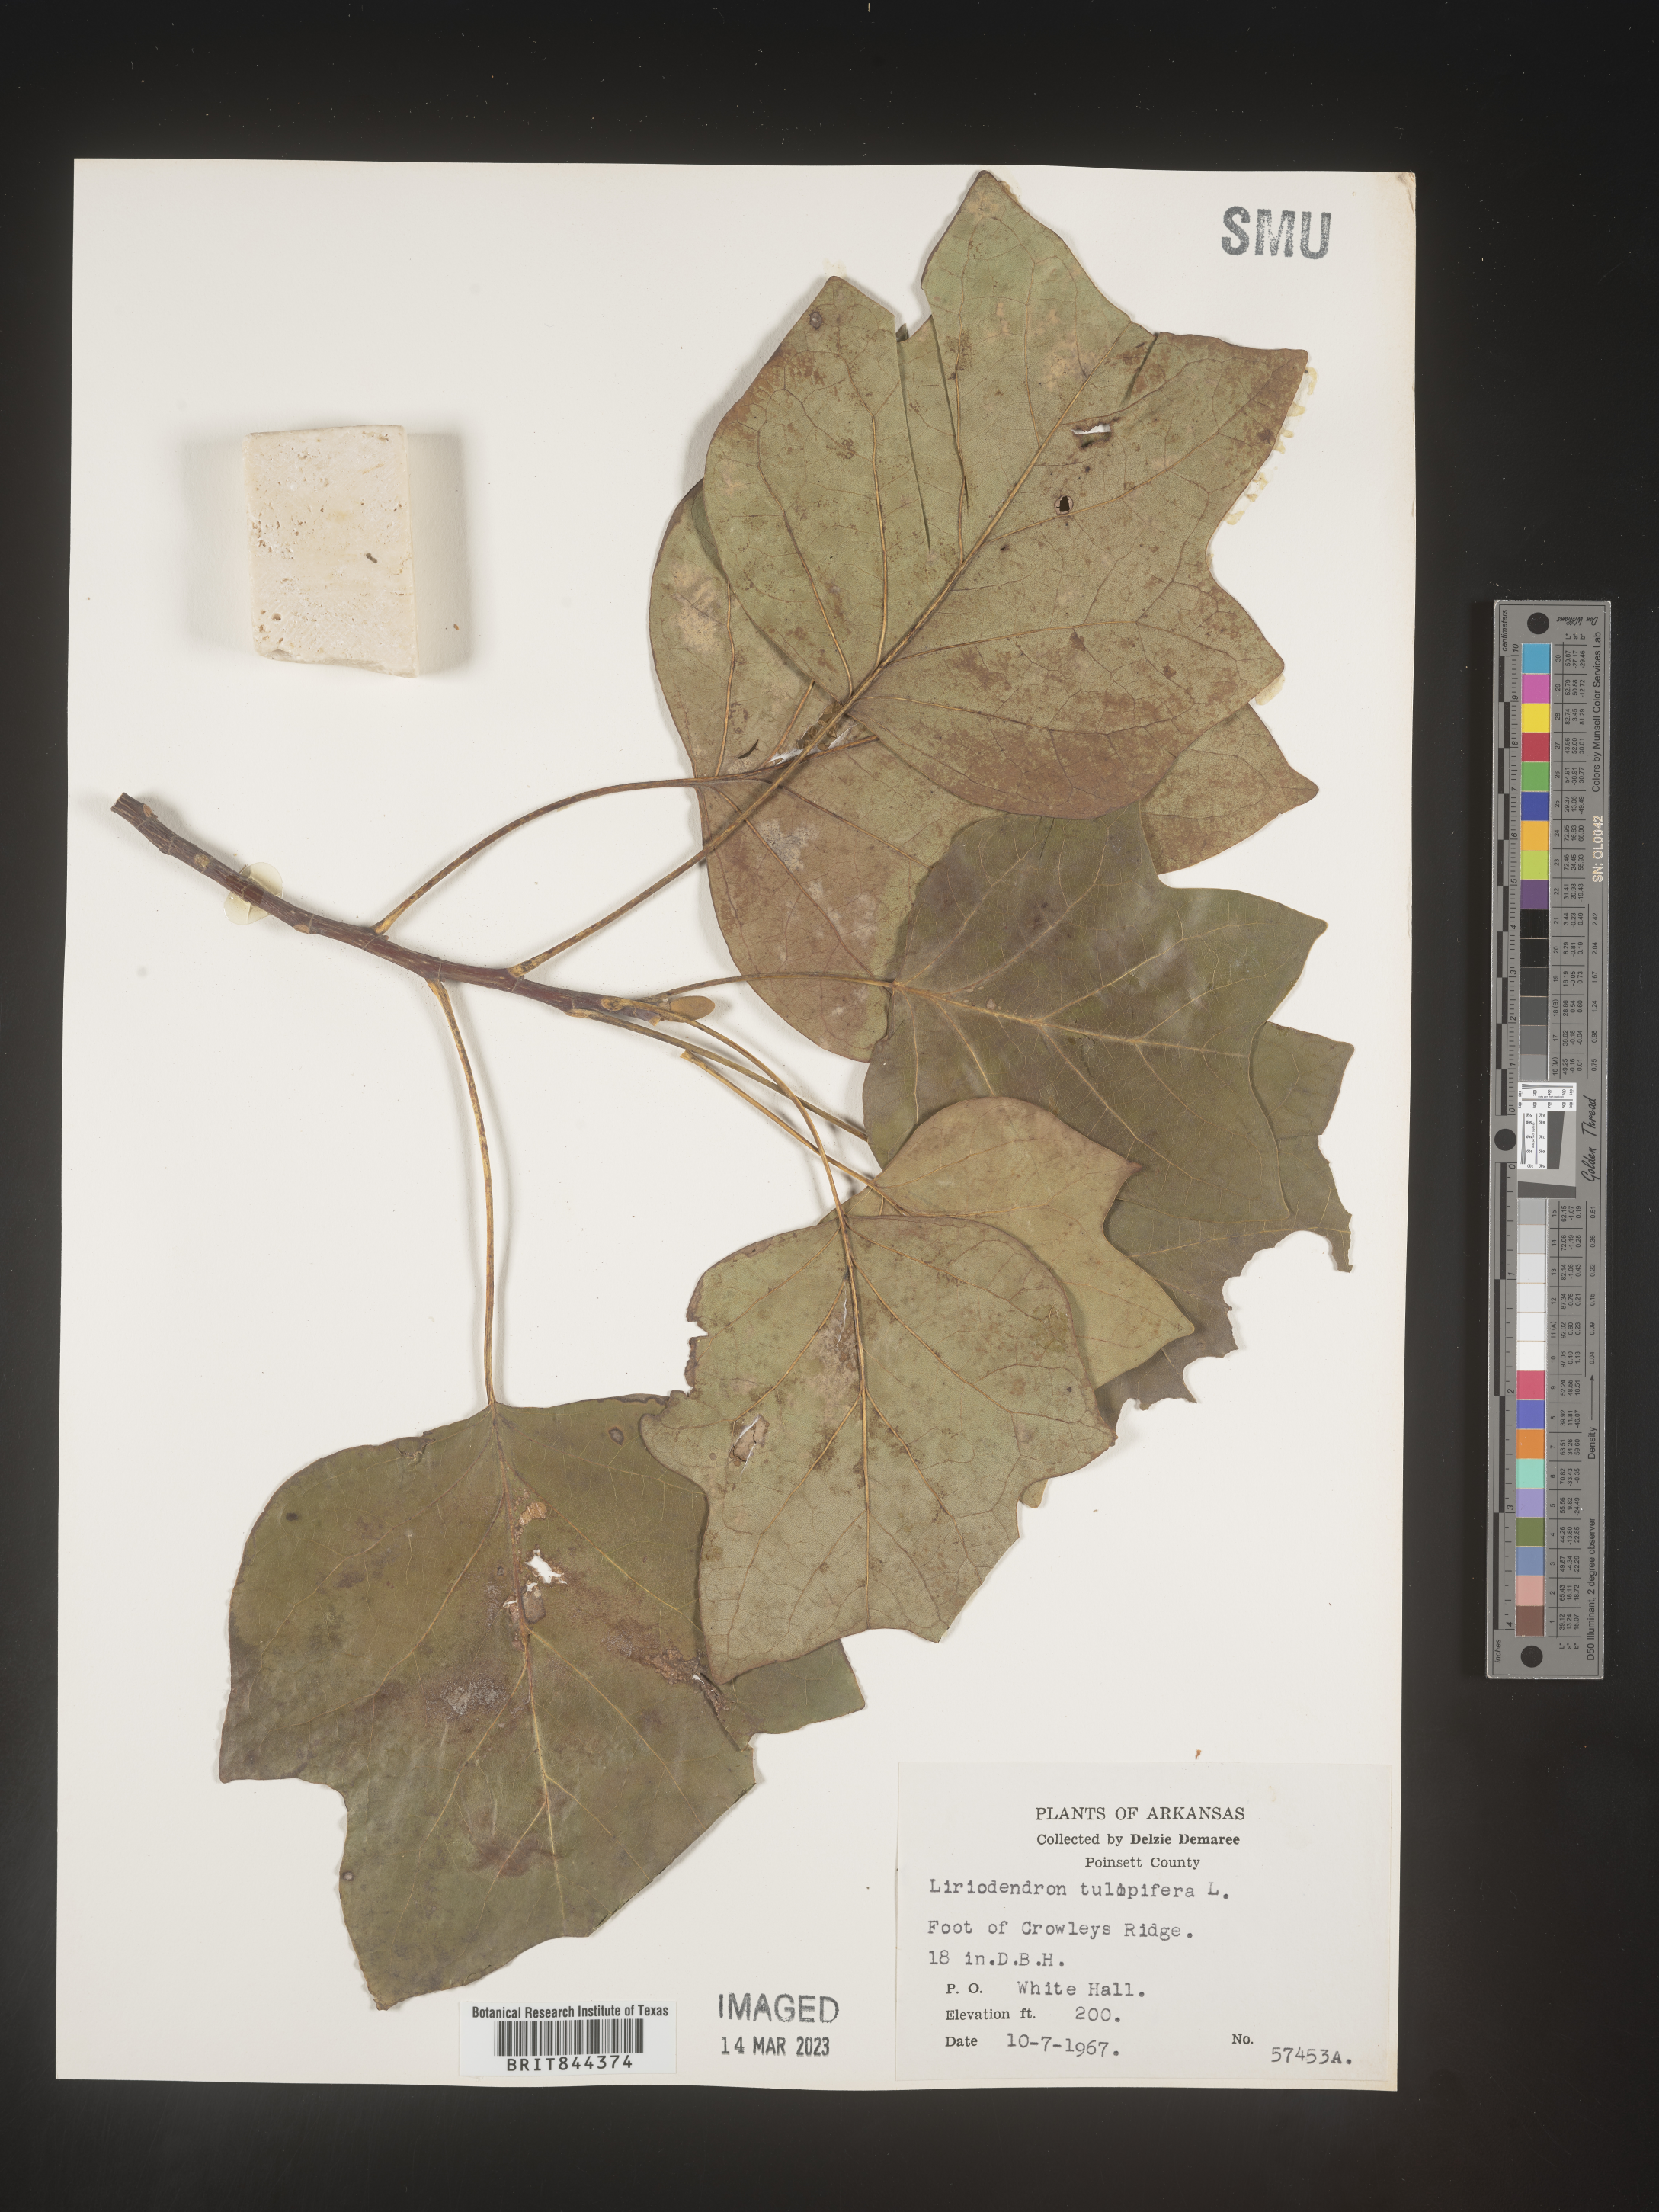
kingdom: Plantae
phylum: Tracheophyta
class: Magnoliopsida
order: Magnoliales
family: Magnoliaceae
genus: Liriodendron
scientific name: Liriodendron tulipifera
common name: Tulip tree
